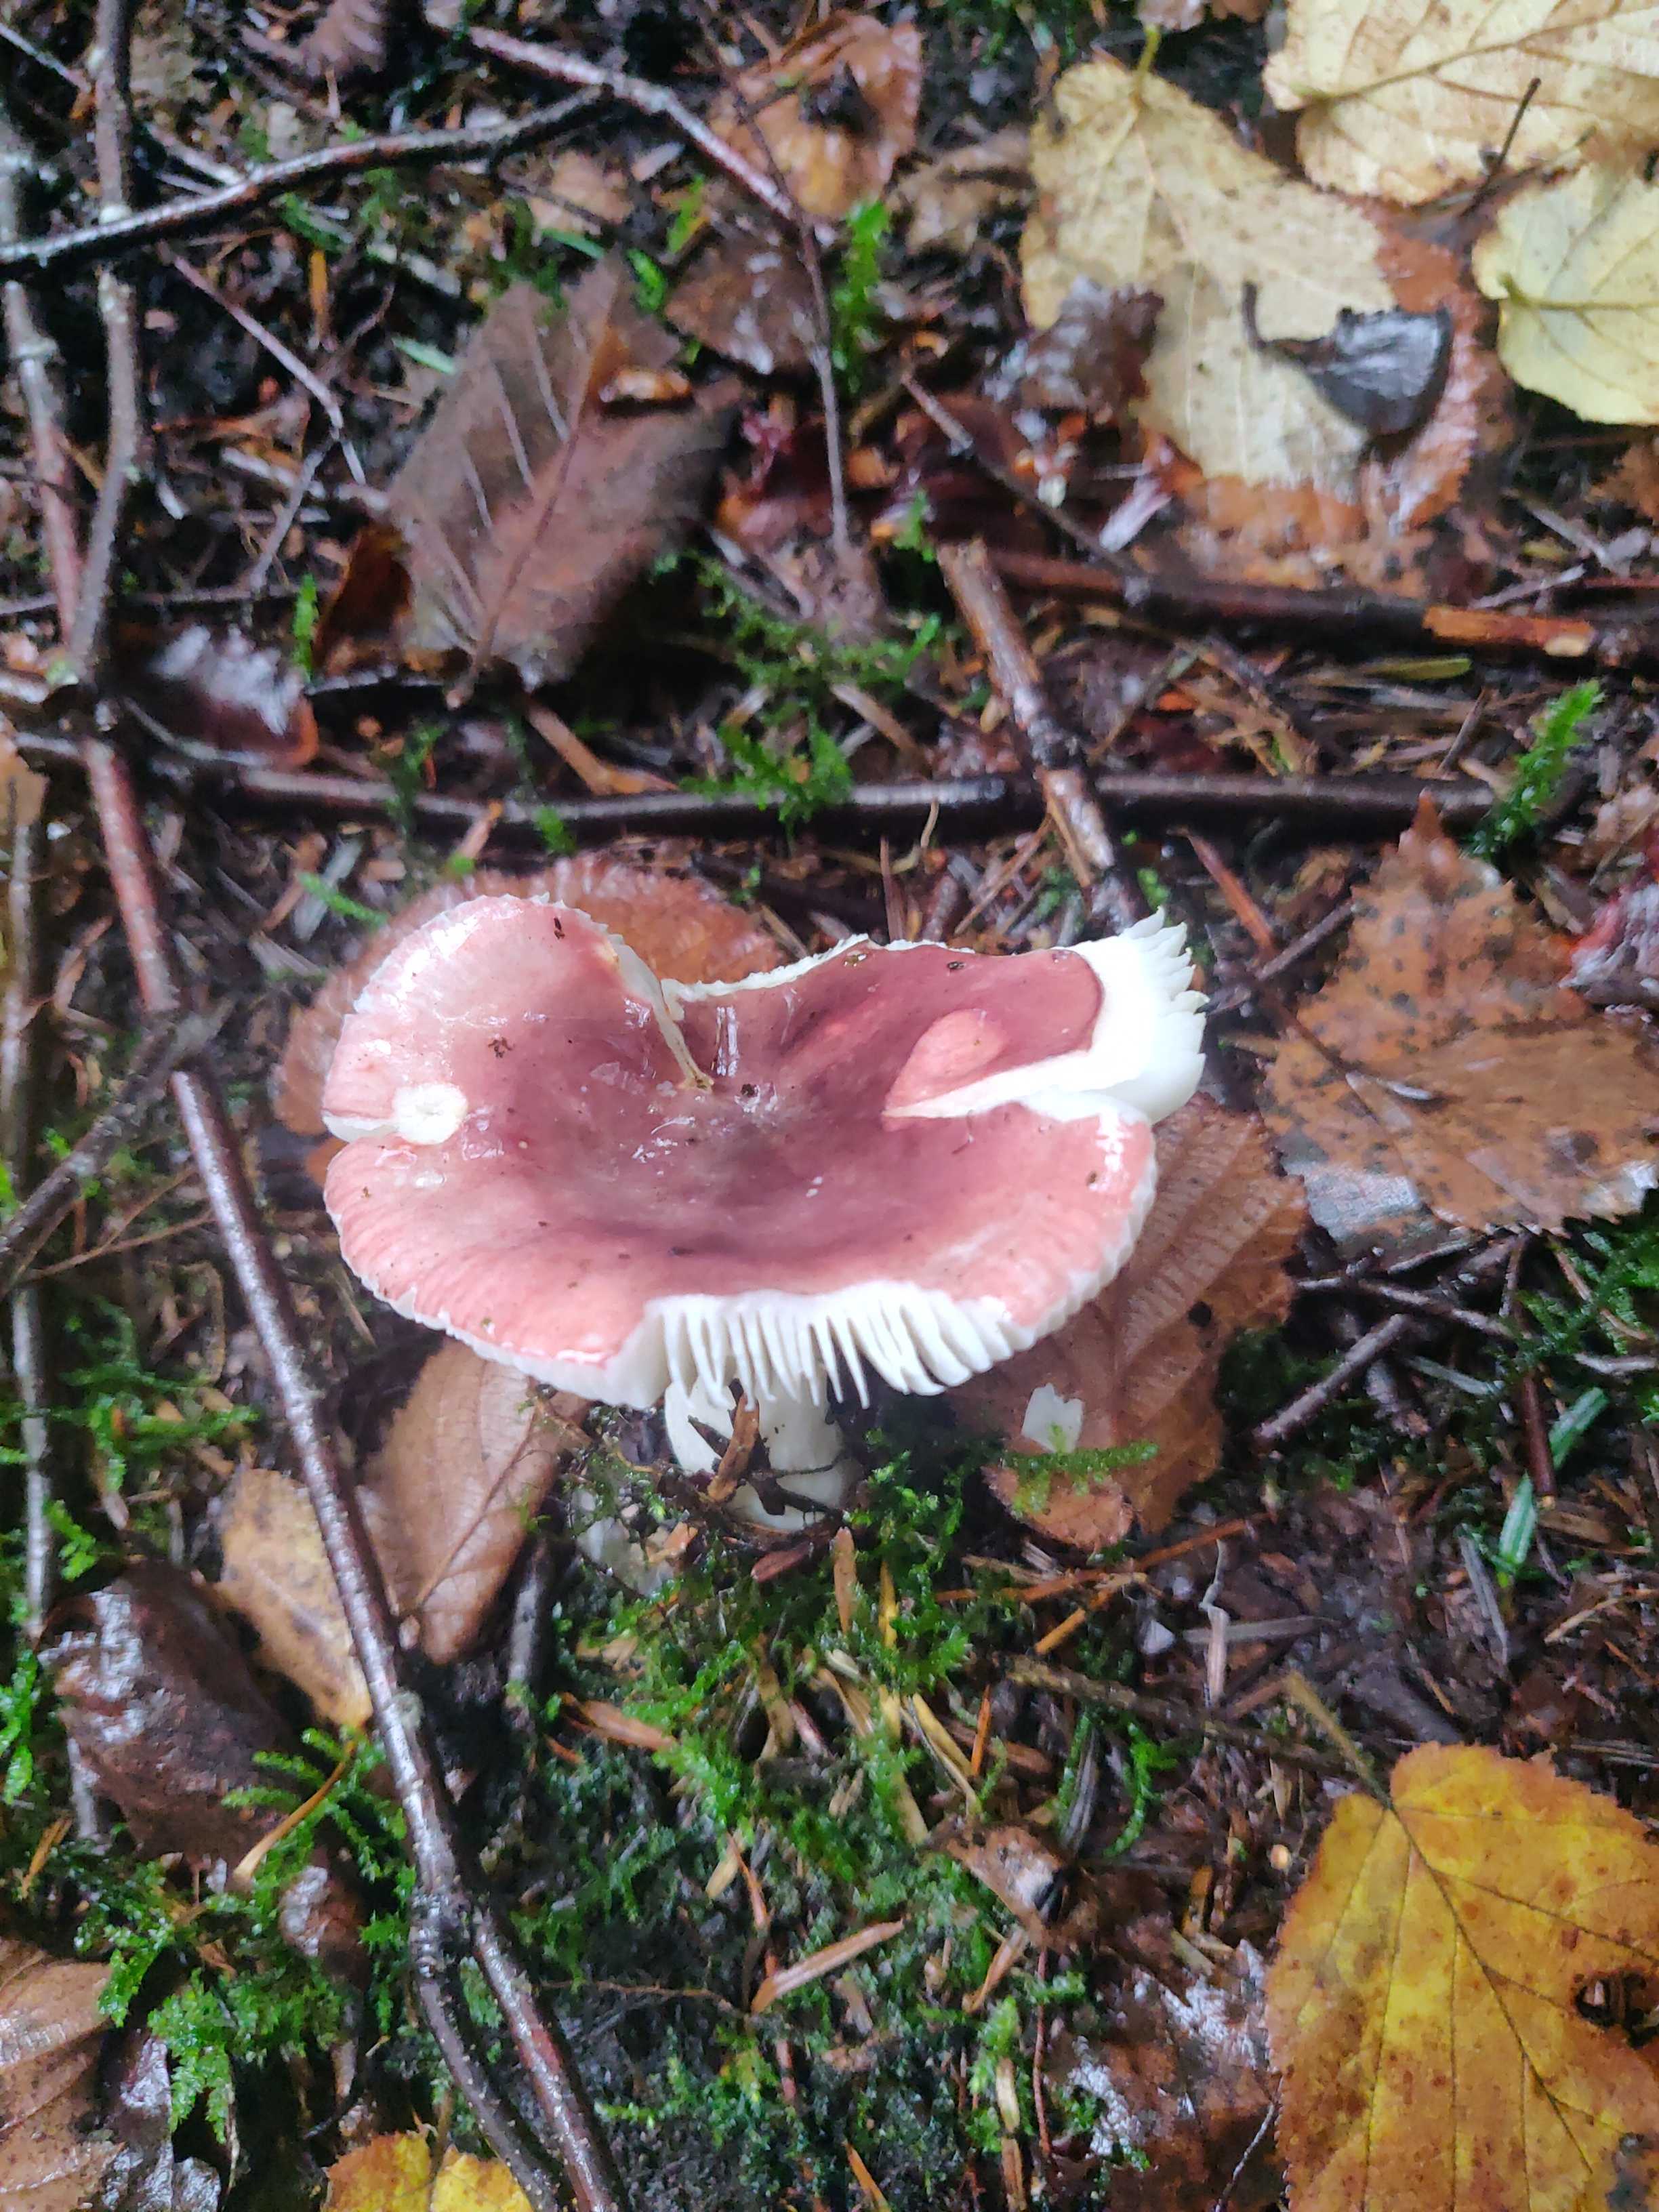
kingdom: Fungi
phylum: Basidiomycota
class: Agaricomycetes
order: Russulales
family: Russulaceae
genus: Russula
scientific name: Russula
